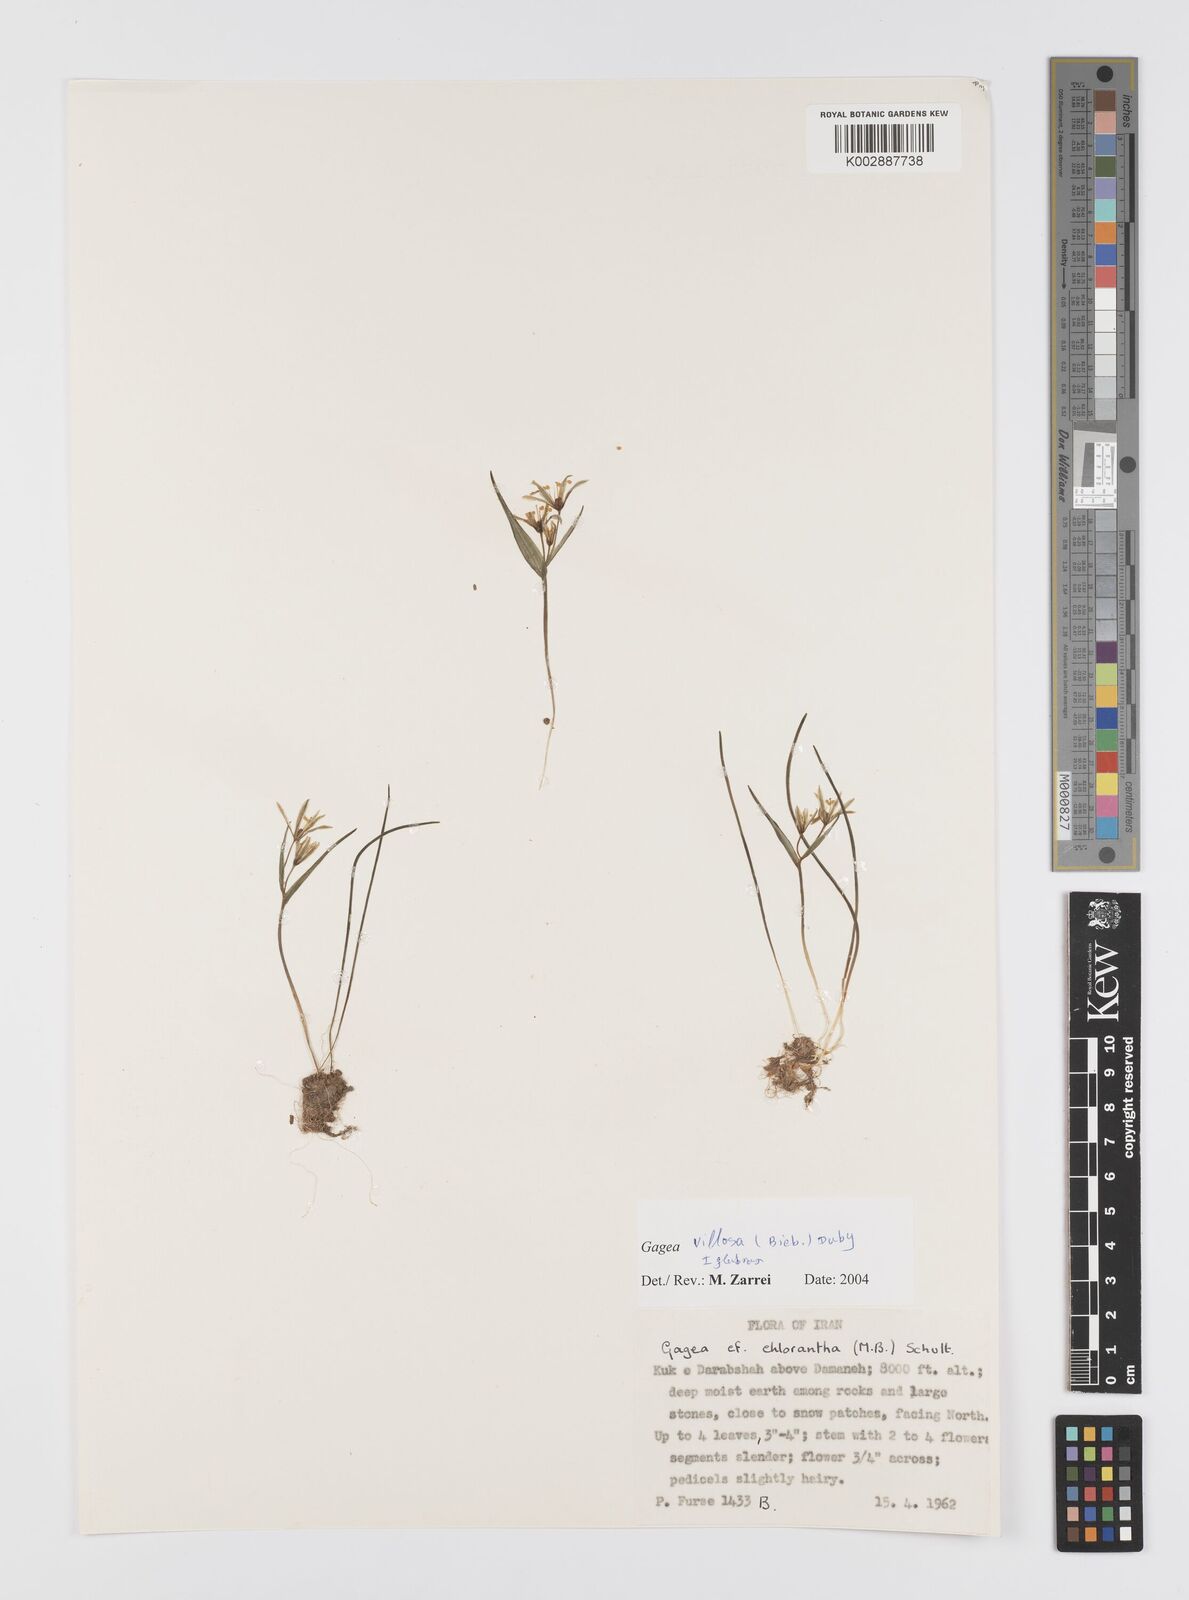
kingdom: Plantae
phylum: Tracheophyta
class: Liliopsida
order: Liliales
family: Liliaceae
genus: Gagea
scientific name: Gagea villosa
